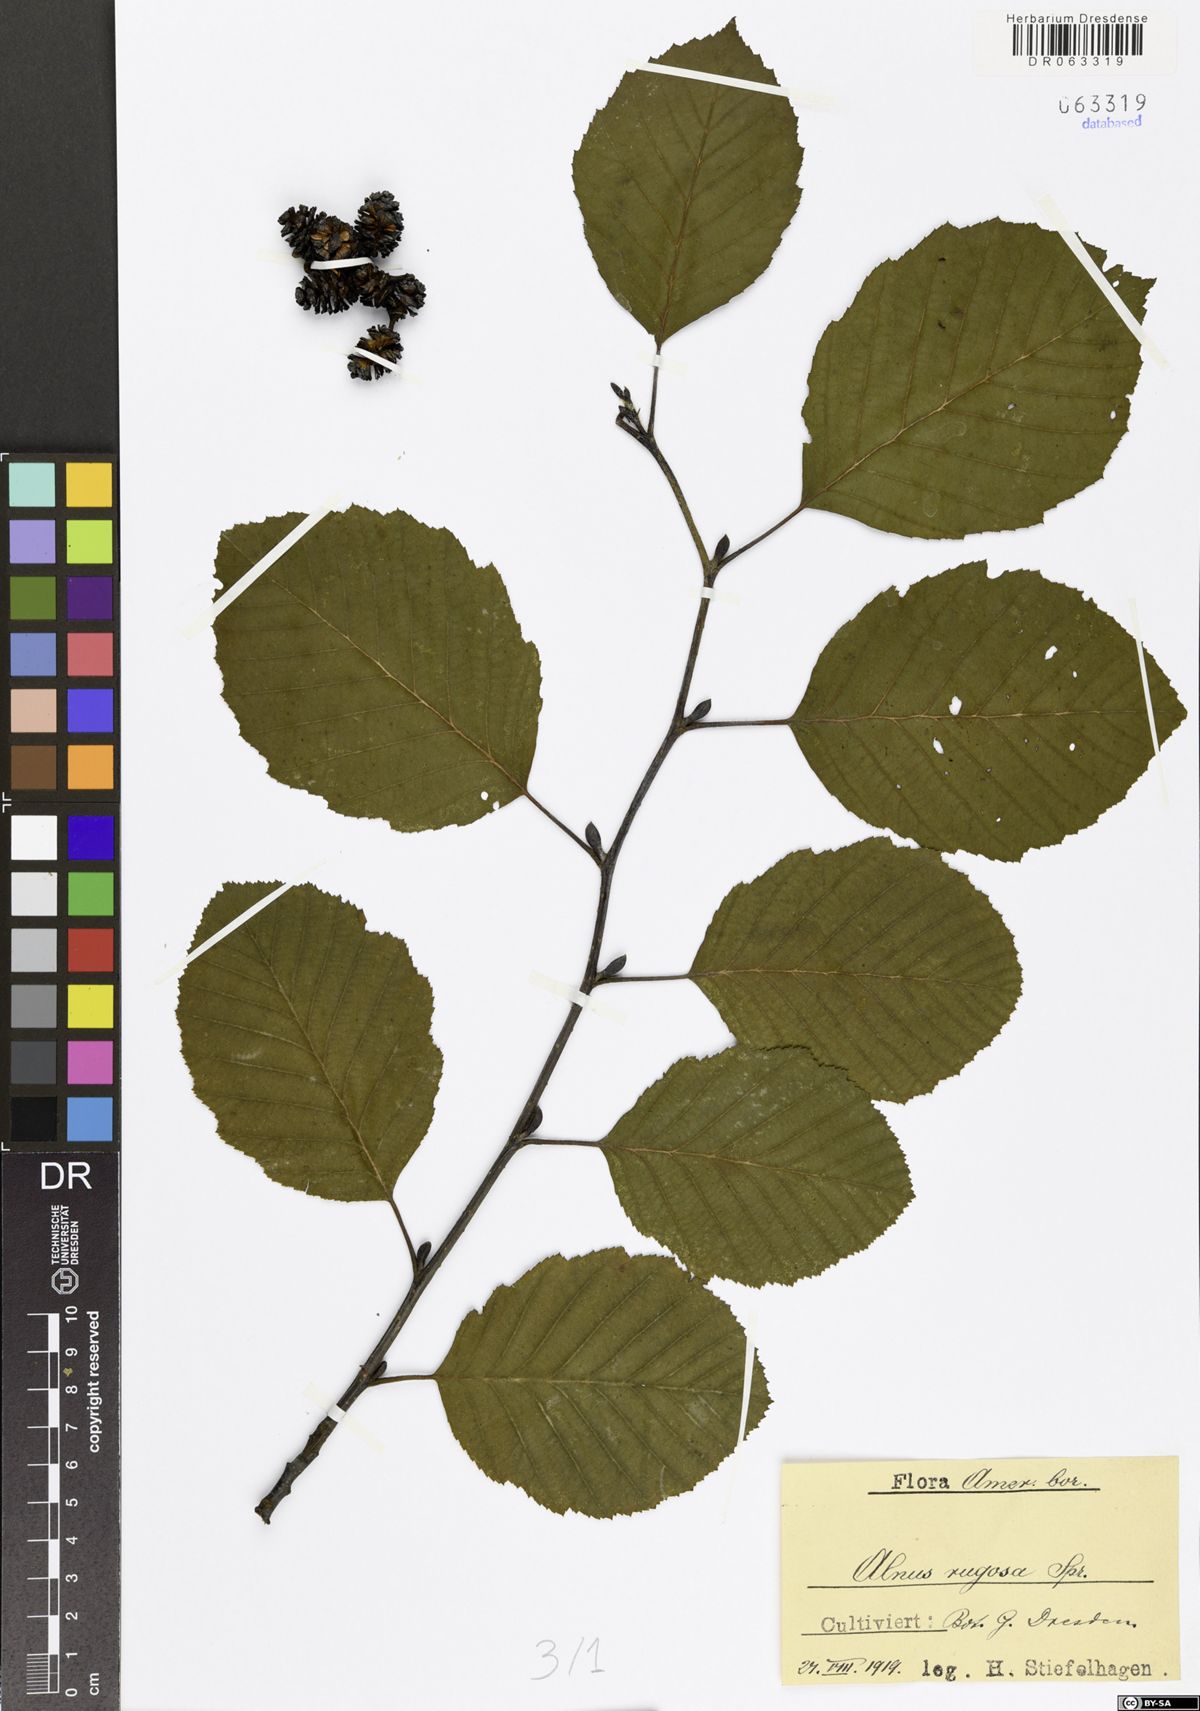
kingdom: Plantae
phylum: Tracheophyta
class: Magnoliopsida
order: Fagales
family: Betulaceae
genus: Alnus
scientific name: Alnus incana
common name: Grey alder
